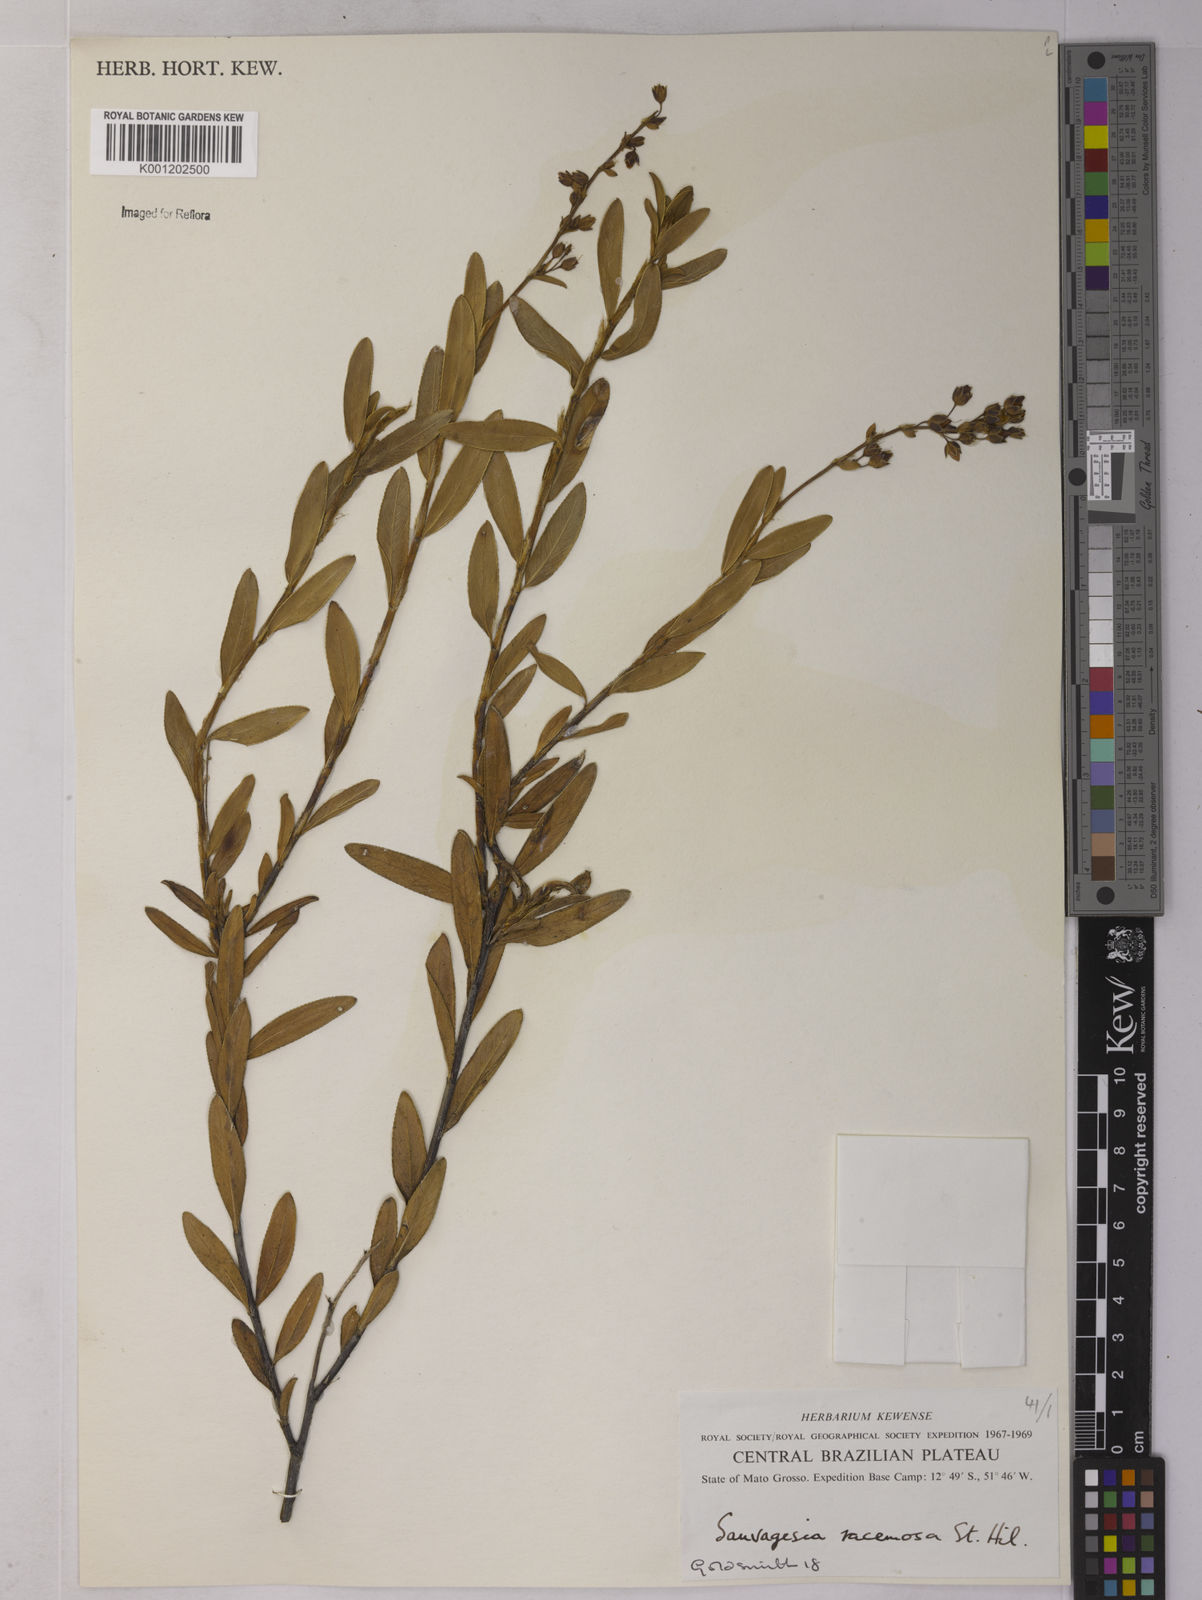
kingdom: Plantae
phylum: Tracheophyta
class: Magnoliopsida
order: Malpighiales
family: Ochnaceae
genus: Sauvagesia
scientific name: Sauvagesia racemosa
